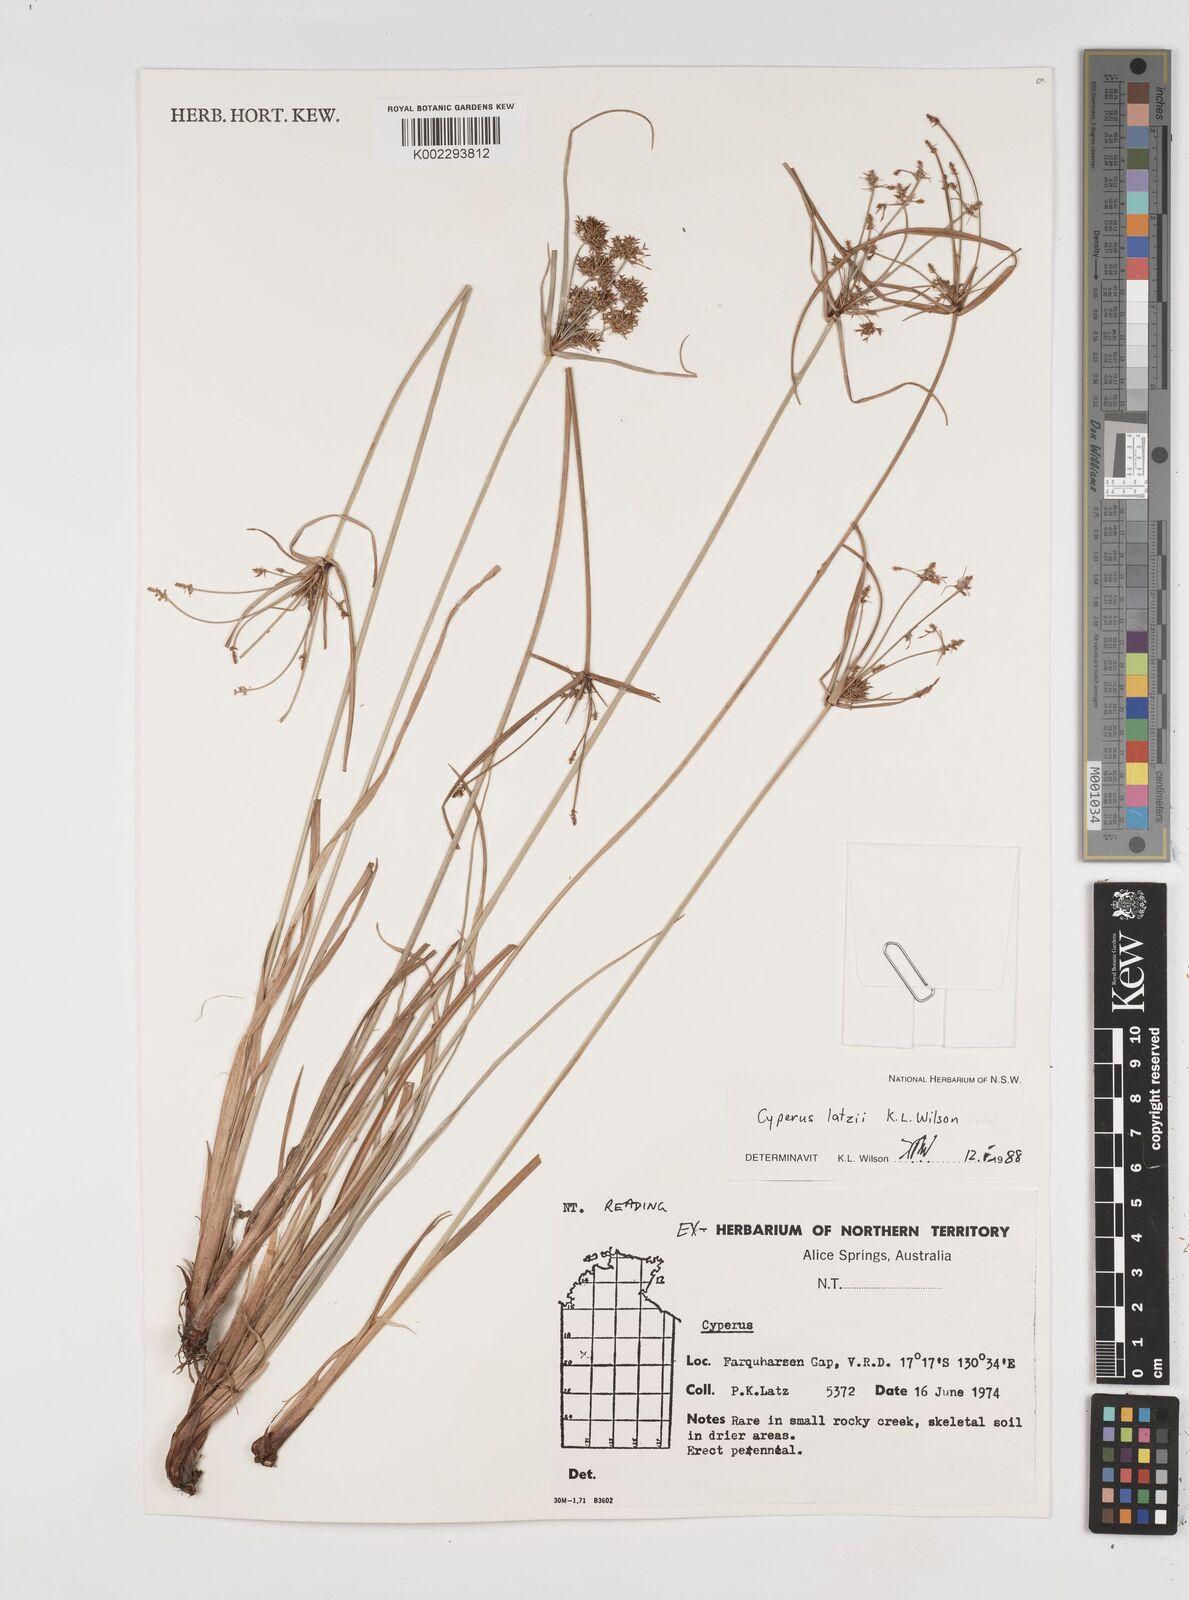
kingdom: Plantae
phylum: Tracheophyta
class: Liliopsida
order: Poales
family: Cyperaceae
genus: Cyperus
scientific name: Cyperus latzii
